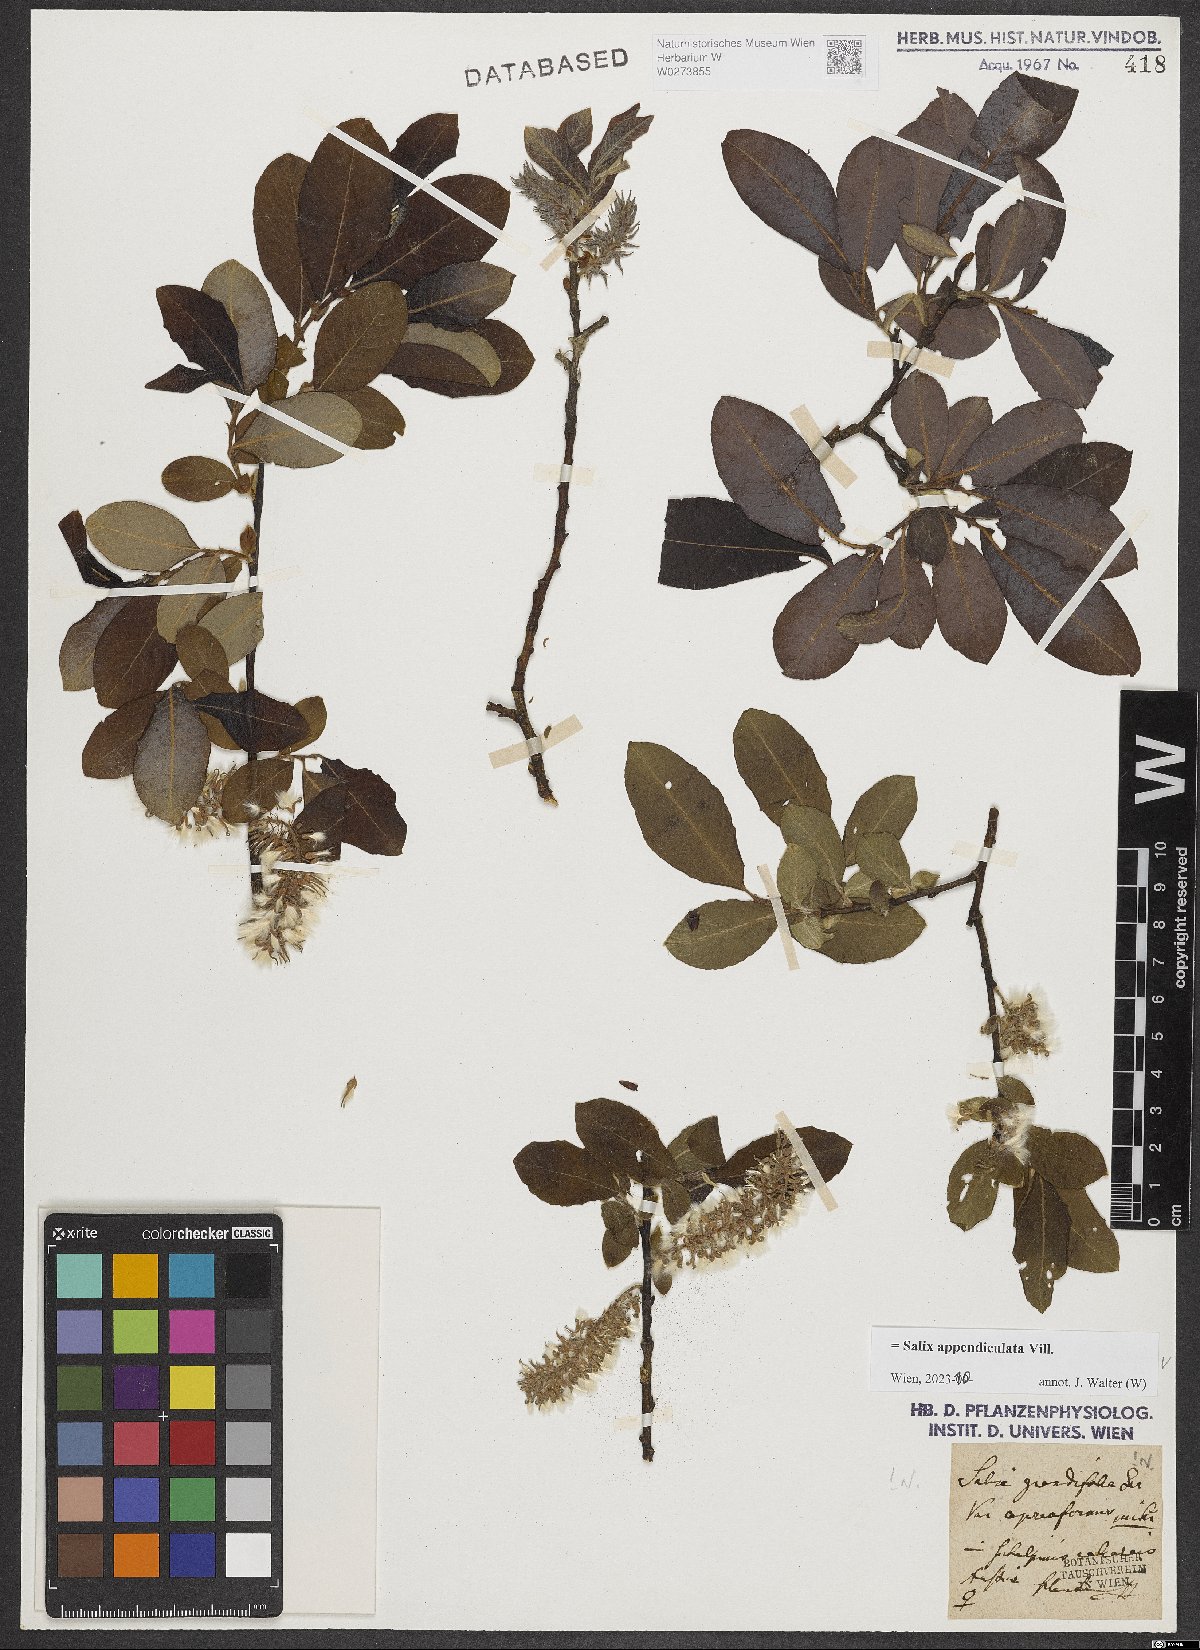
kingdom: Plantae
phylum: Tracheophyta
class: Magnoliopsida
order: Malpighiales
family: Salicaceae
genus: Salix
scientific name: Salix appendiculata
